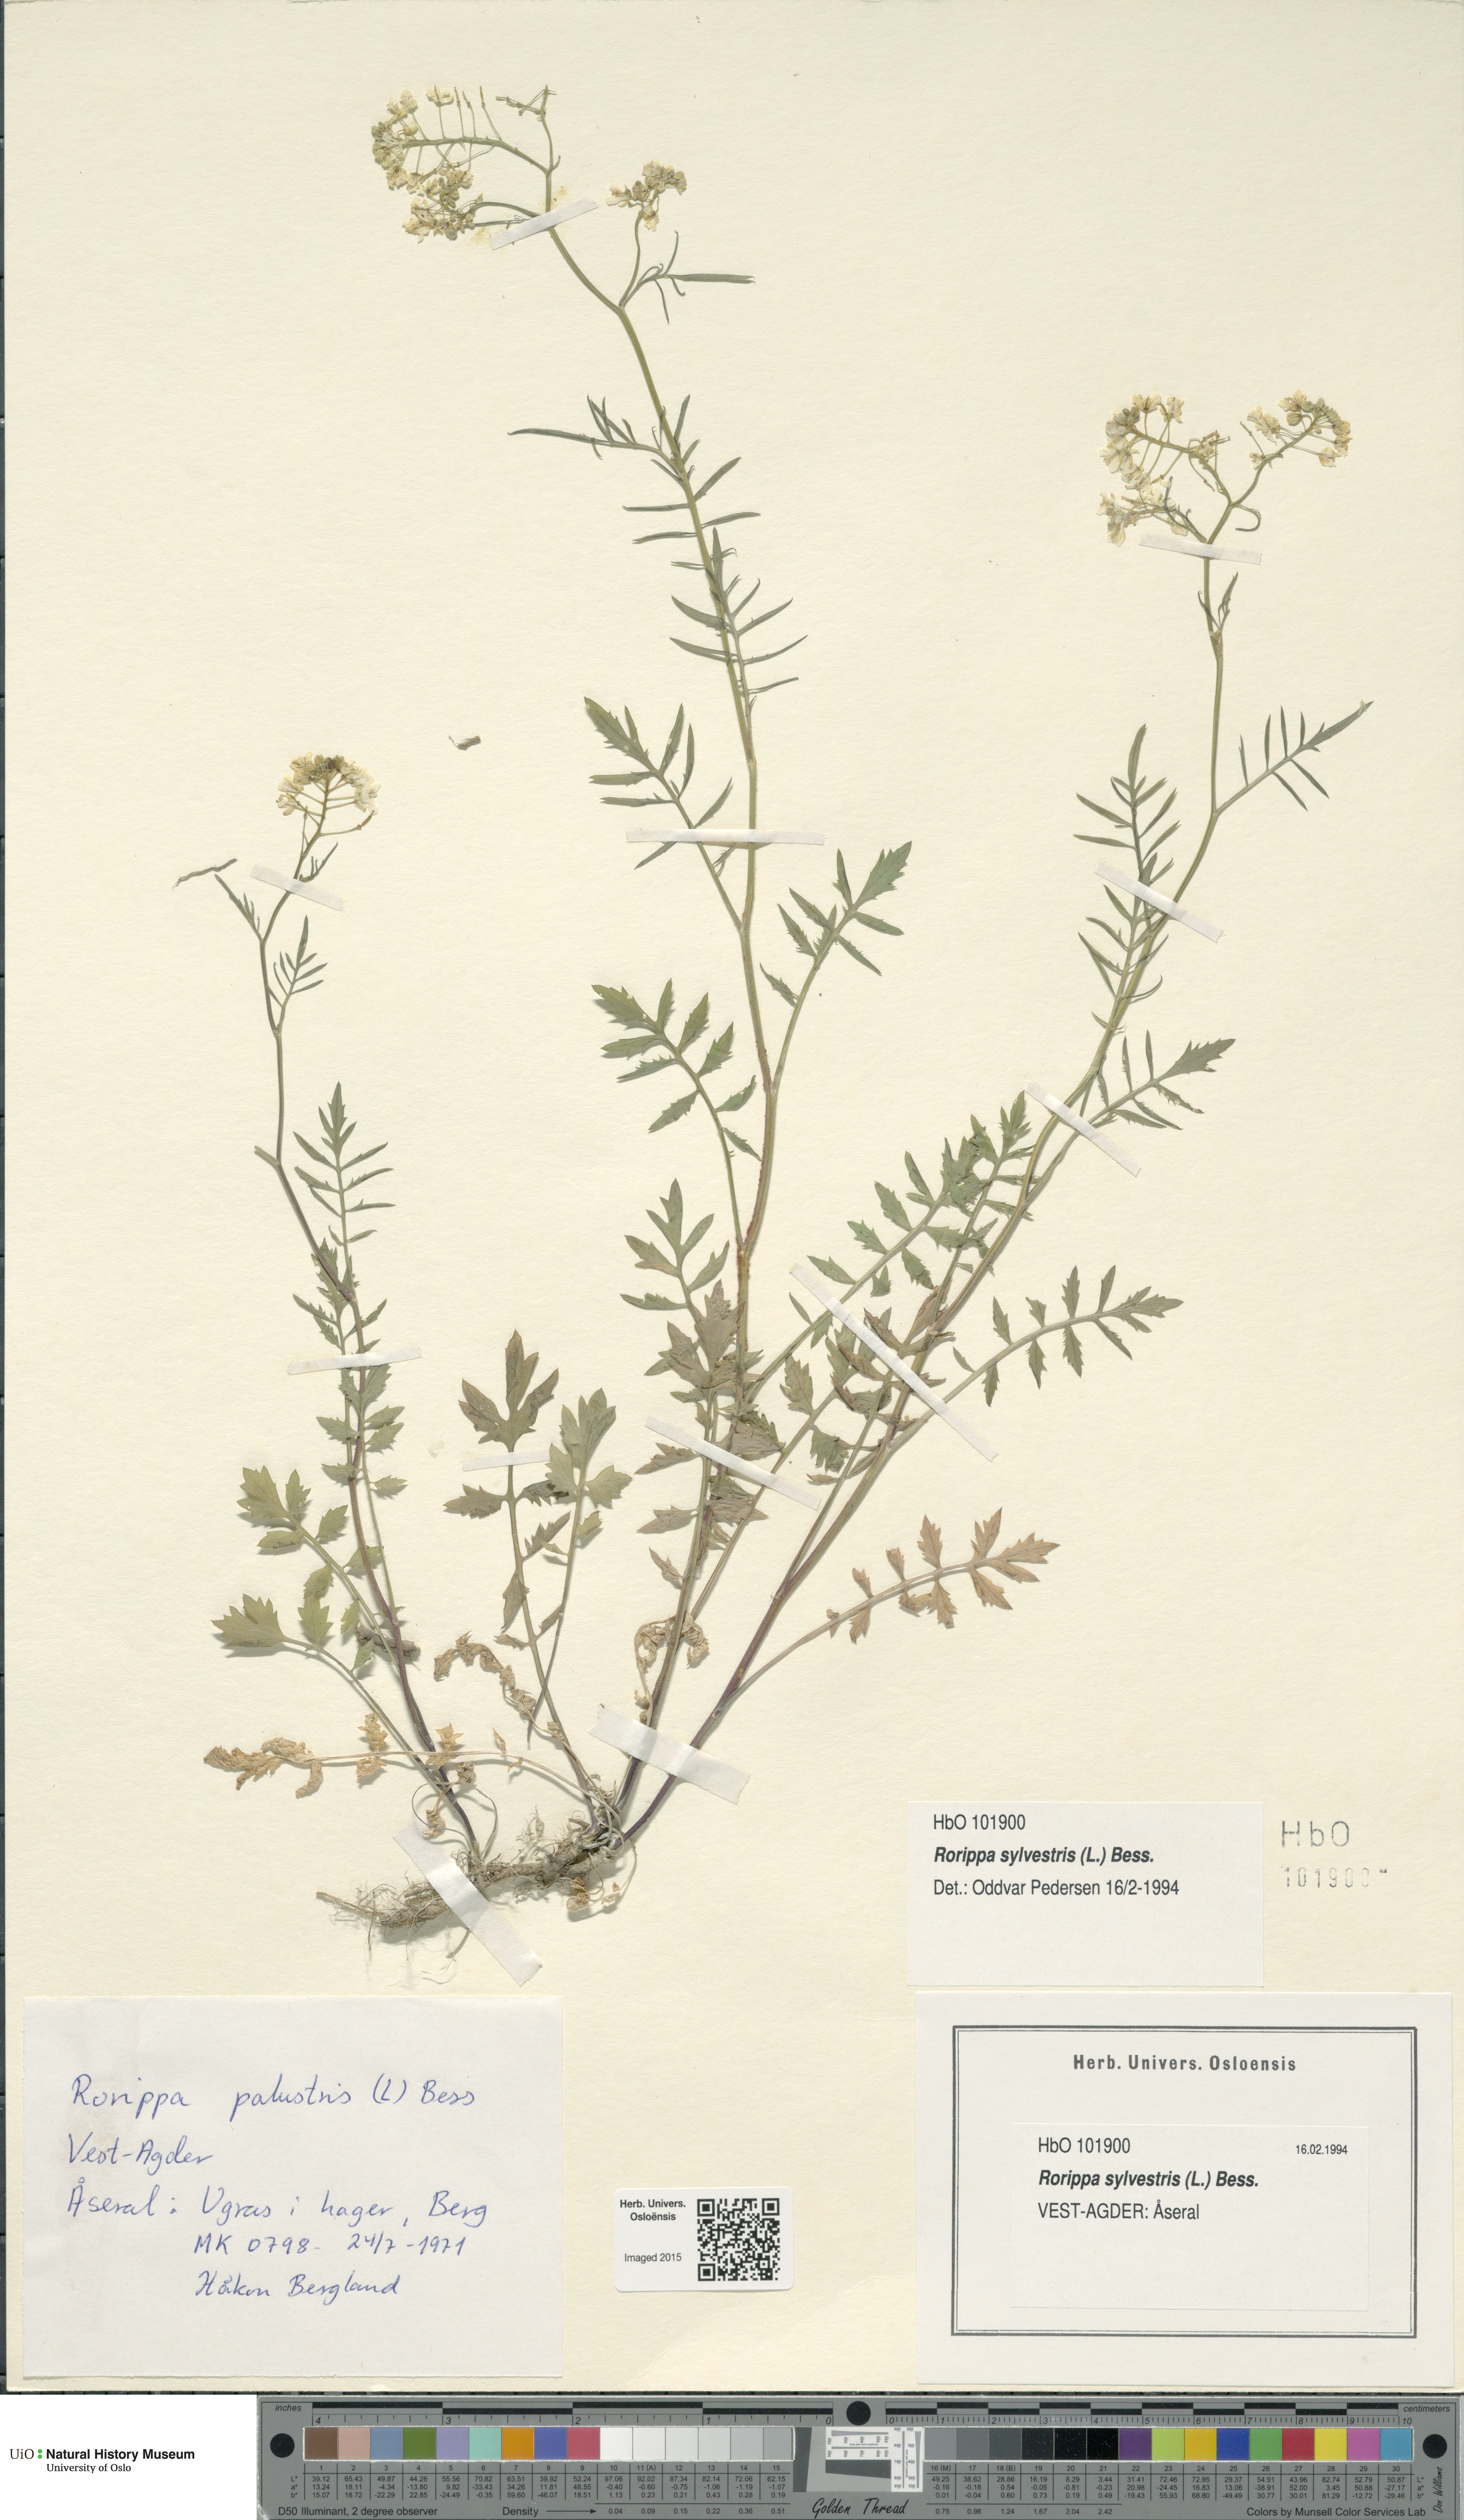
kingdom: Plantae
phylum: Tracheophyta
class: Magnoliopsida
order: Brassicales
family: Brassicaceae
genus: Rorippa
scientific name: Rorippa sylvestris
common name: Creeping yellowcress
